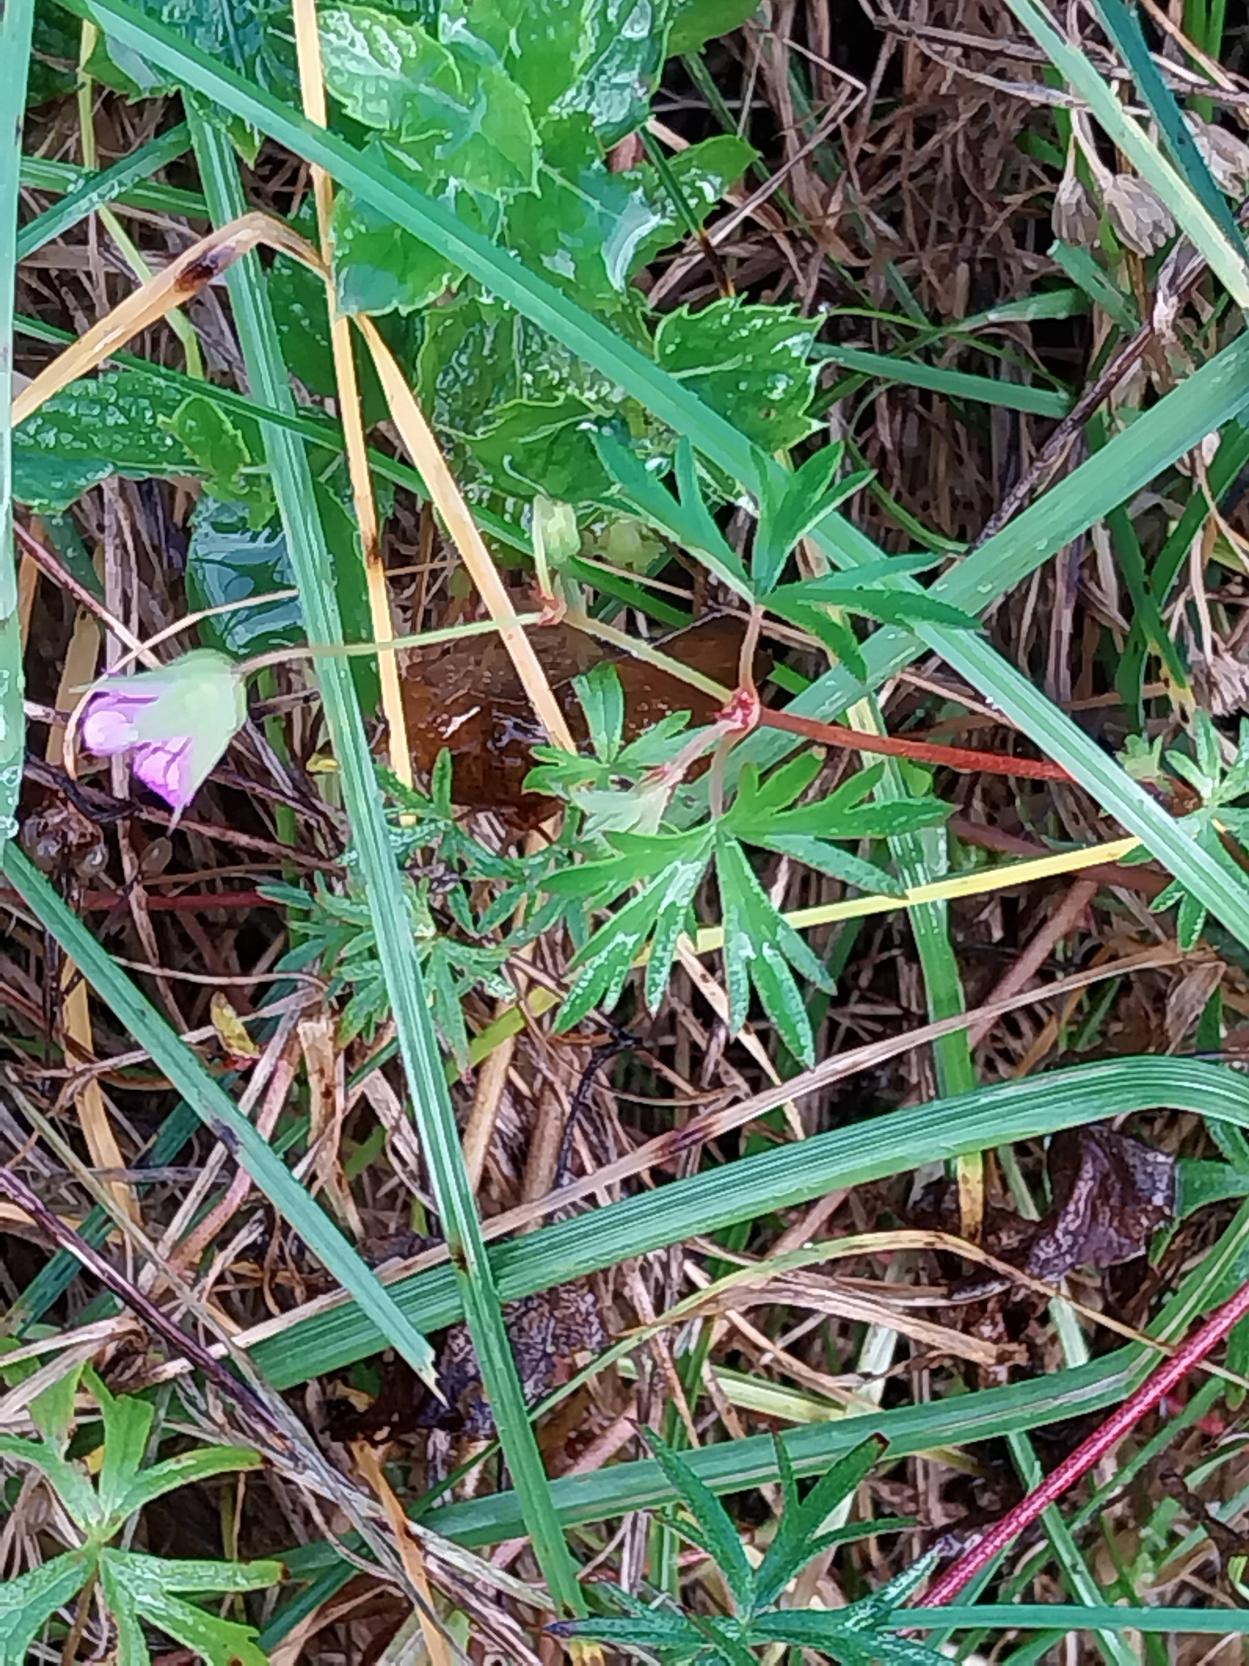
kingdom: Plantae
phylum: Tracheophyta
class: Magnoliopsida
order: Geraniales
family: Geraniaceae
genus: Geranium
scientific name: Geranium columbinum
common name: Storbægret storkenæb
